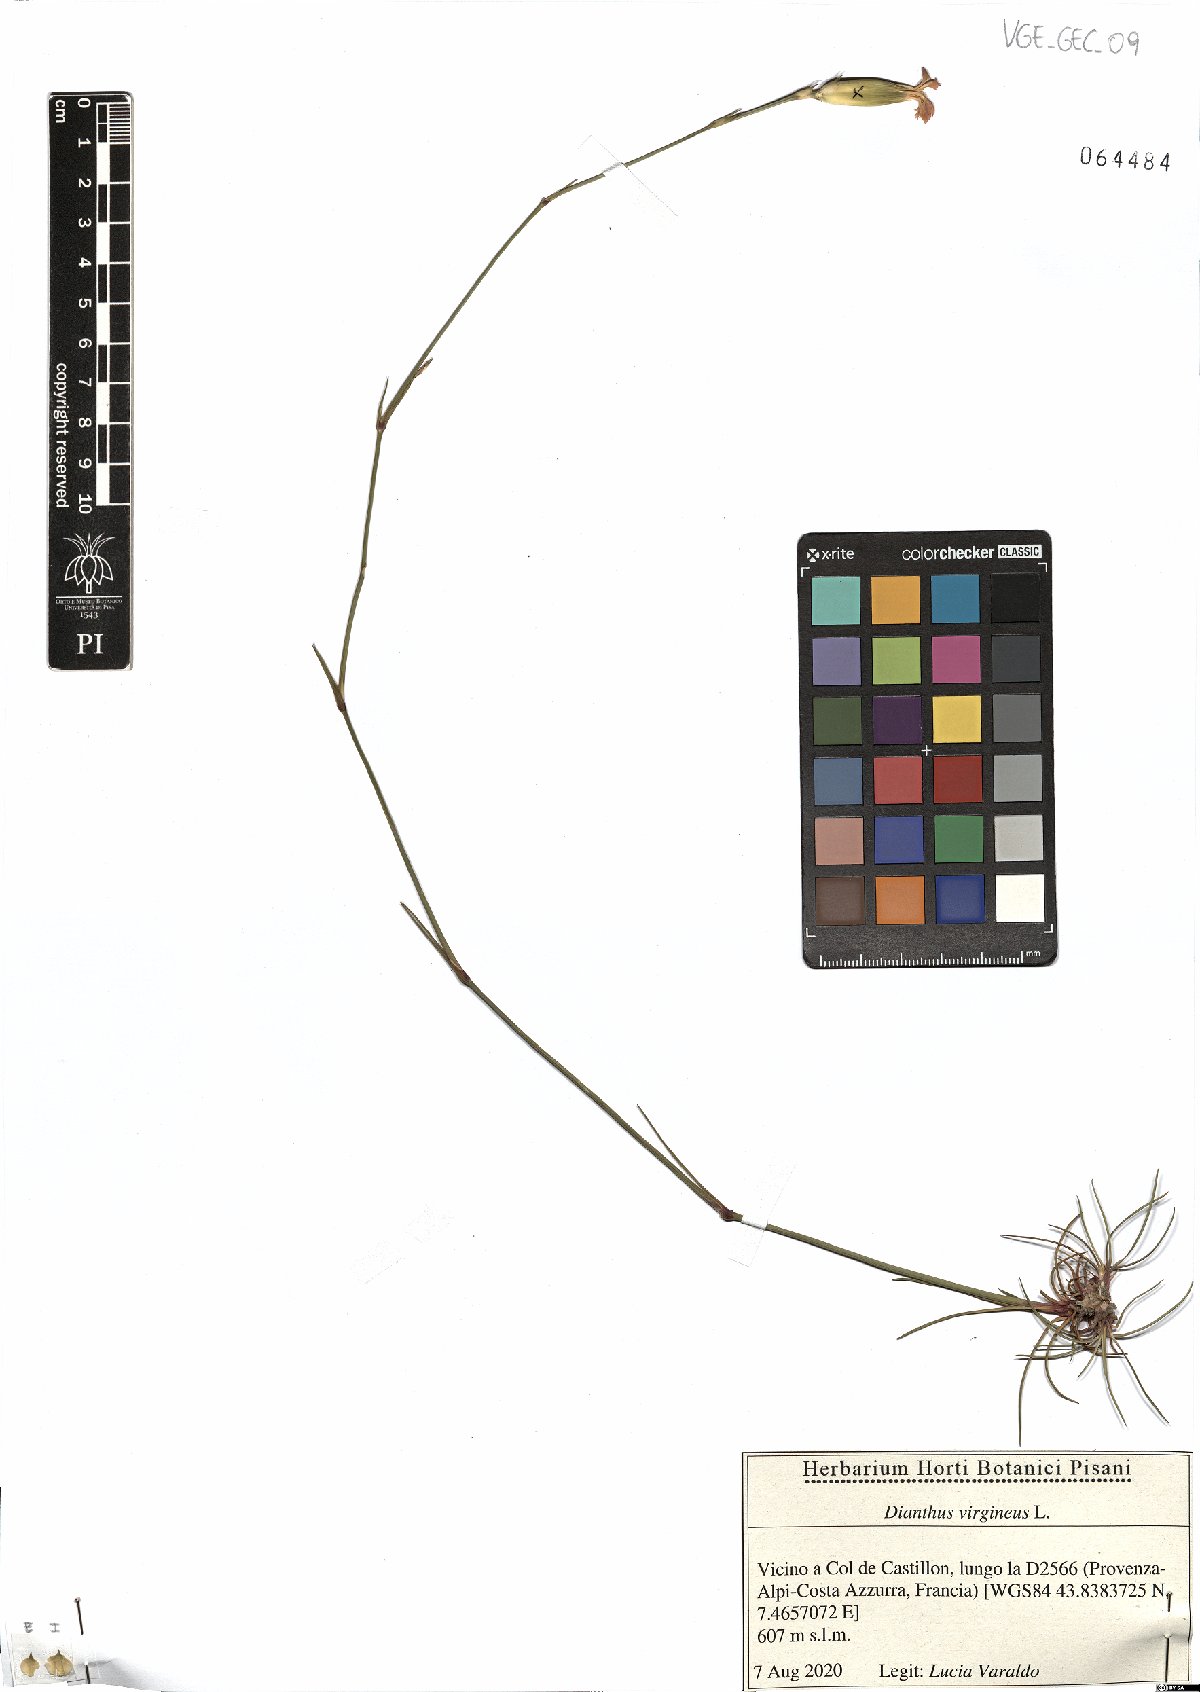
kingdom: Plantae
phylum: Tracheophyta
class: Magnoliopsida
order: Caryophyllales
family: Caryophyllaceae
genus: Dianthus
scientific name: Dianthus virgineus
